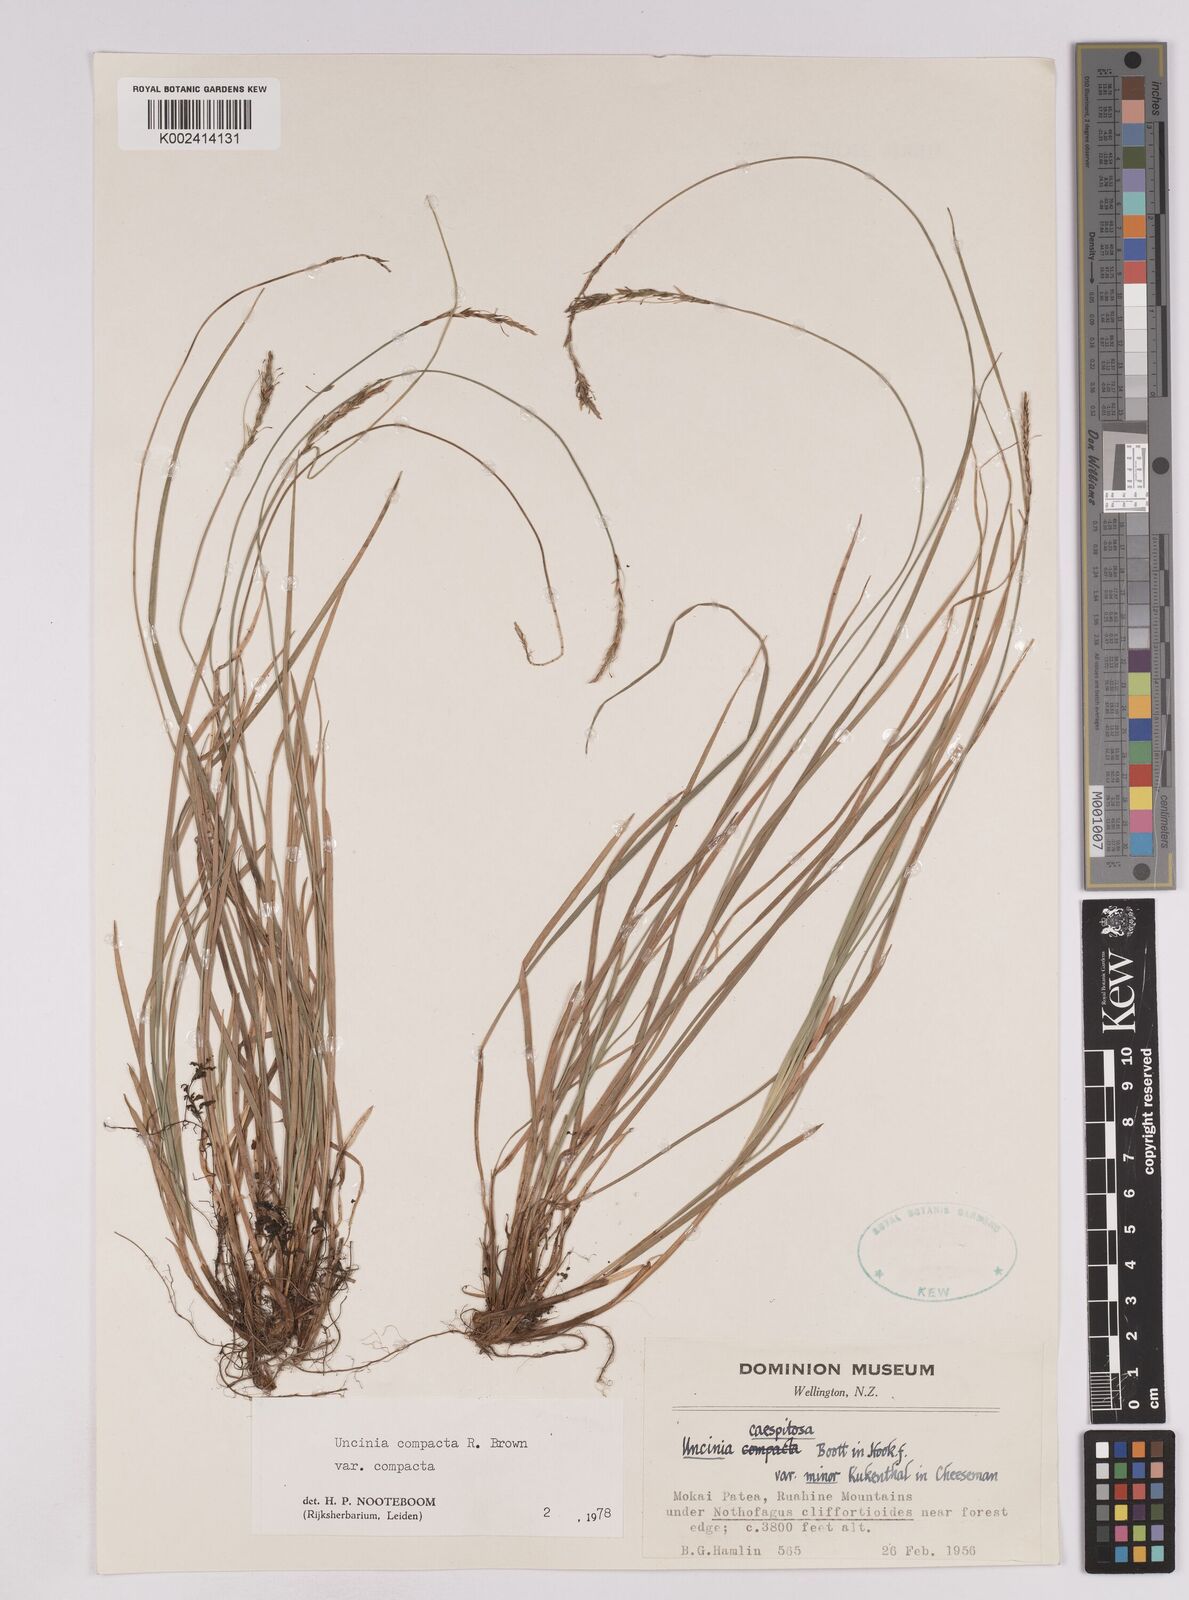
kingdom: Plantae
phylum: Tracheophyta
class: Liliopsida
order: Poales
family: Cyperaceae
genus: Carex
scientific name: Carex austrocompacta
